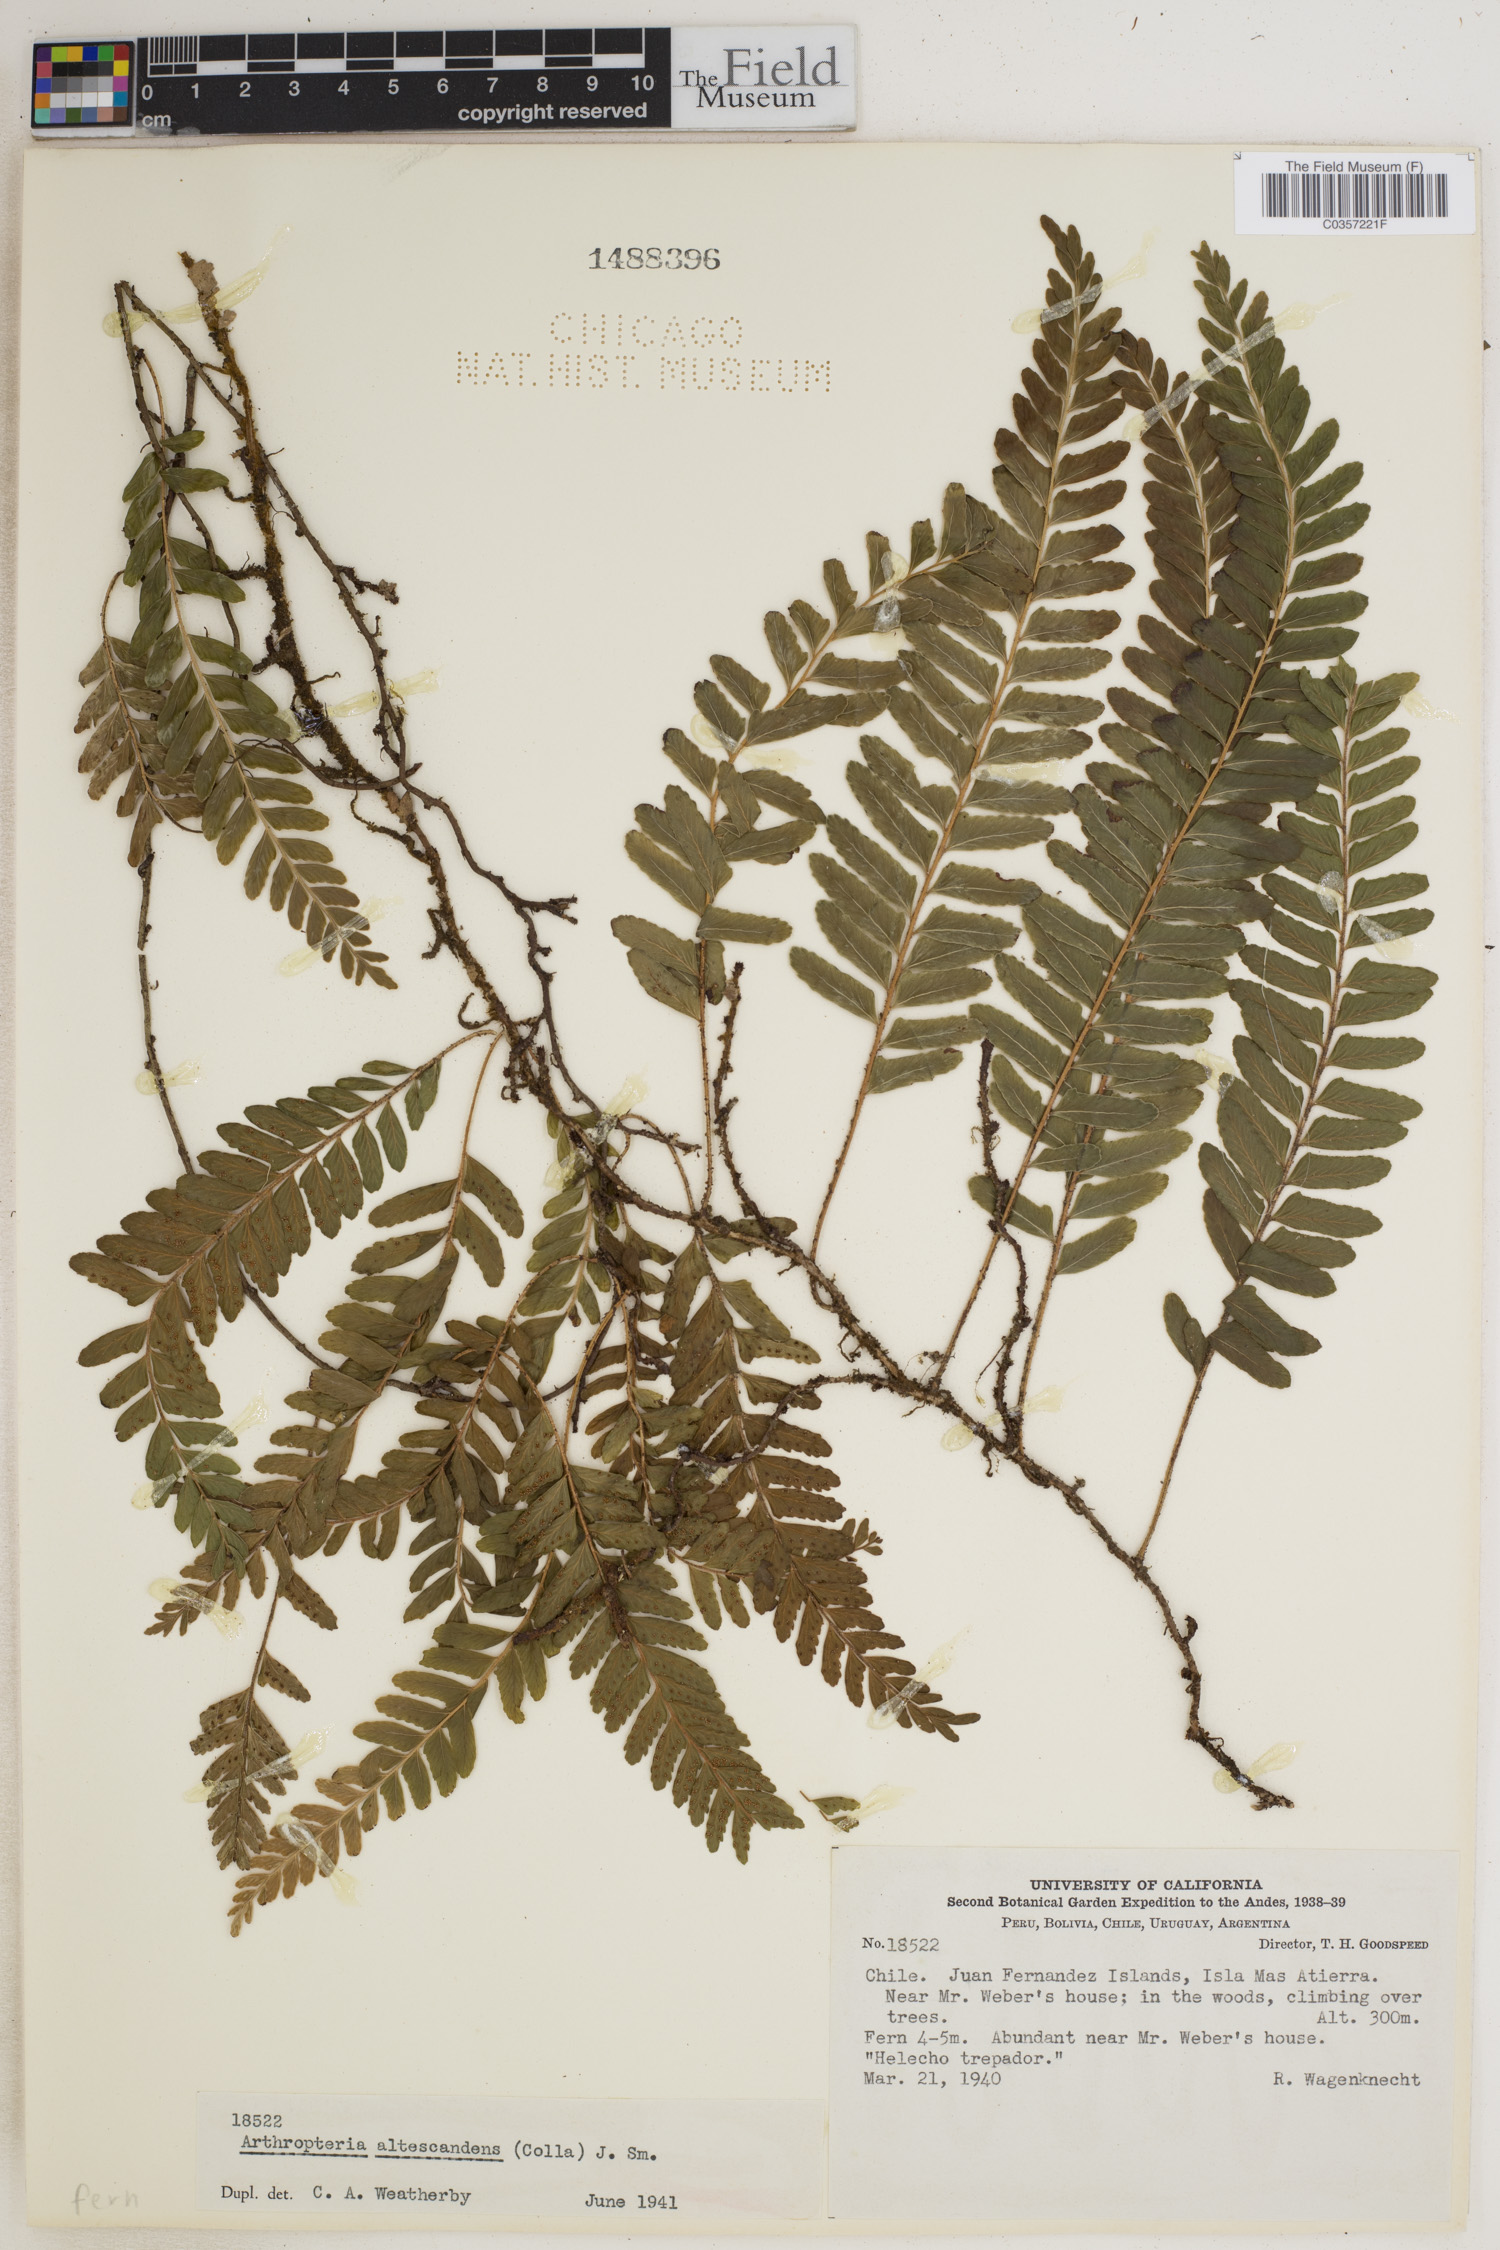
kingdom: Plantae
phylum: Tracheophyta
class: Polypodiopsida
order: Polypodiales
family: Tectariaceae
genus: Arthropteris
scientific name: Arthropteris altescandens
